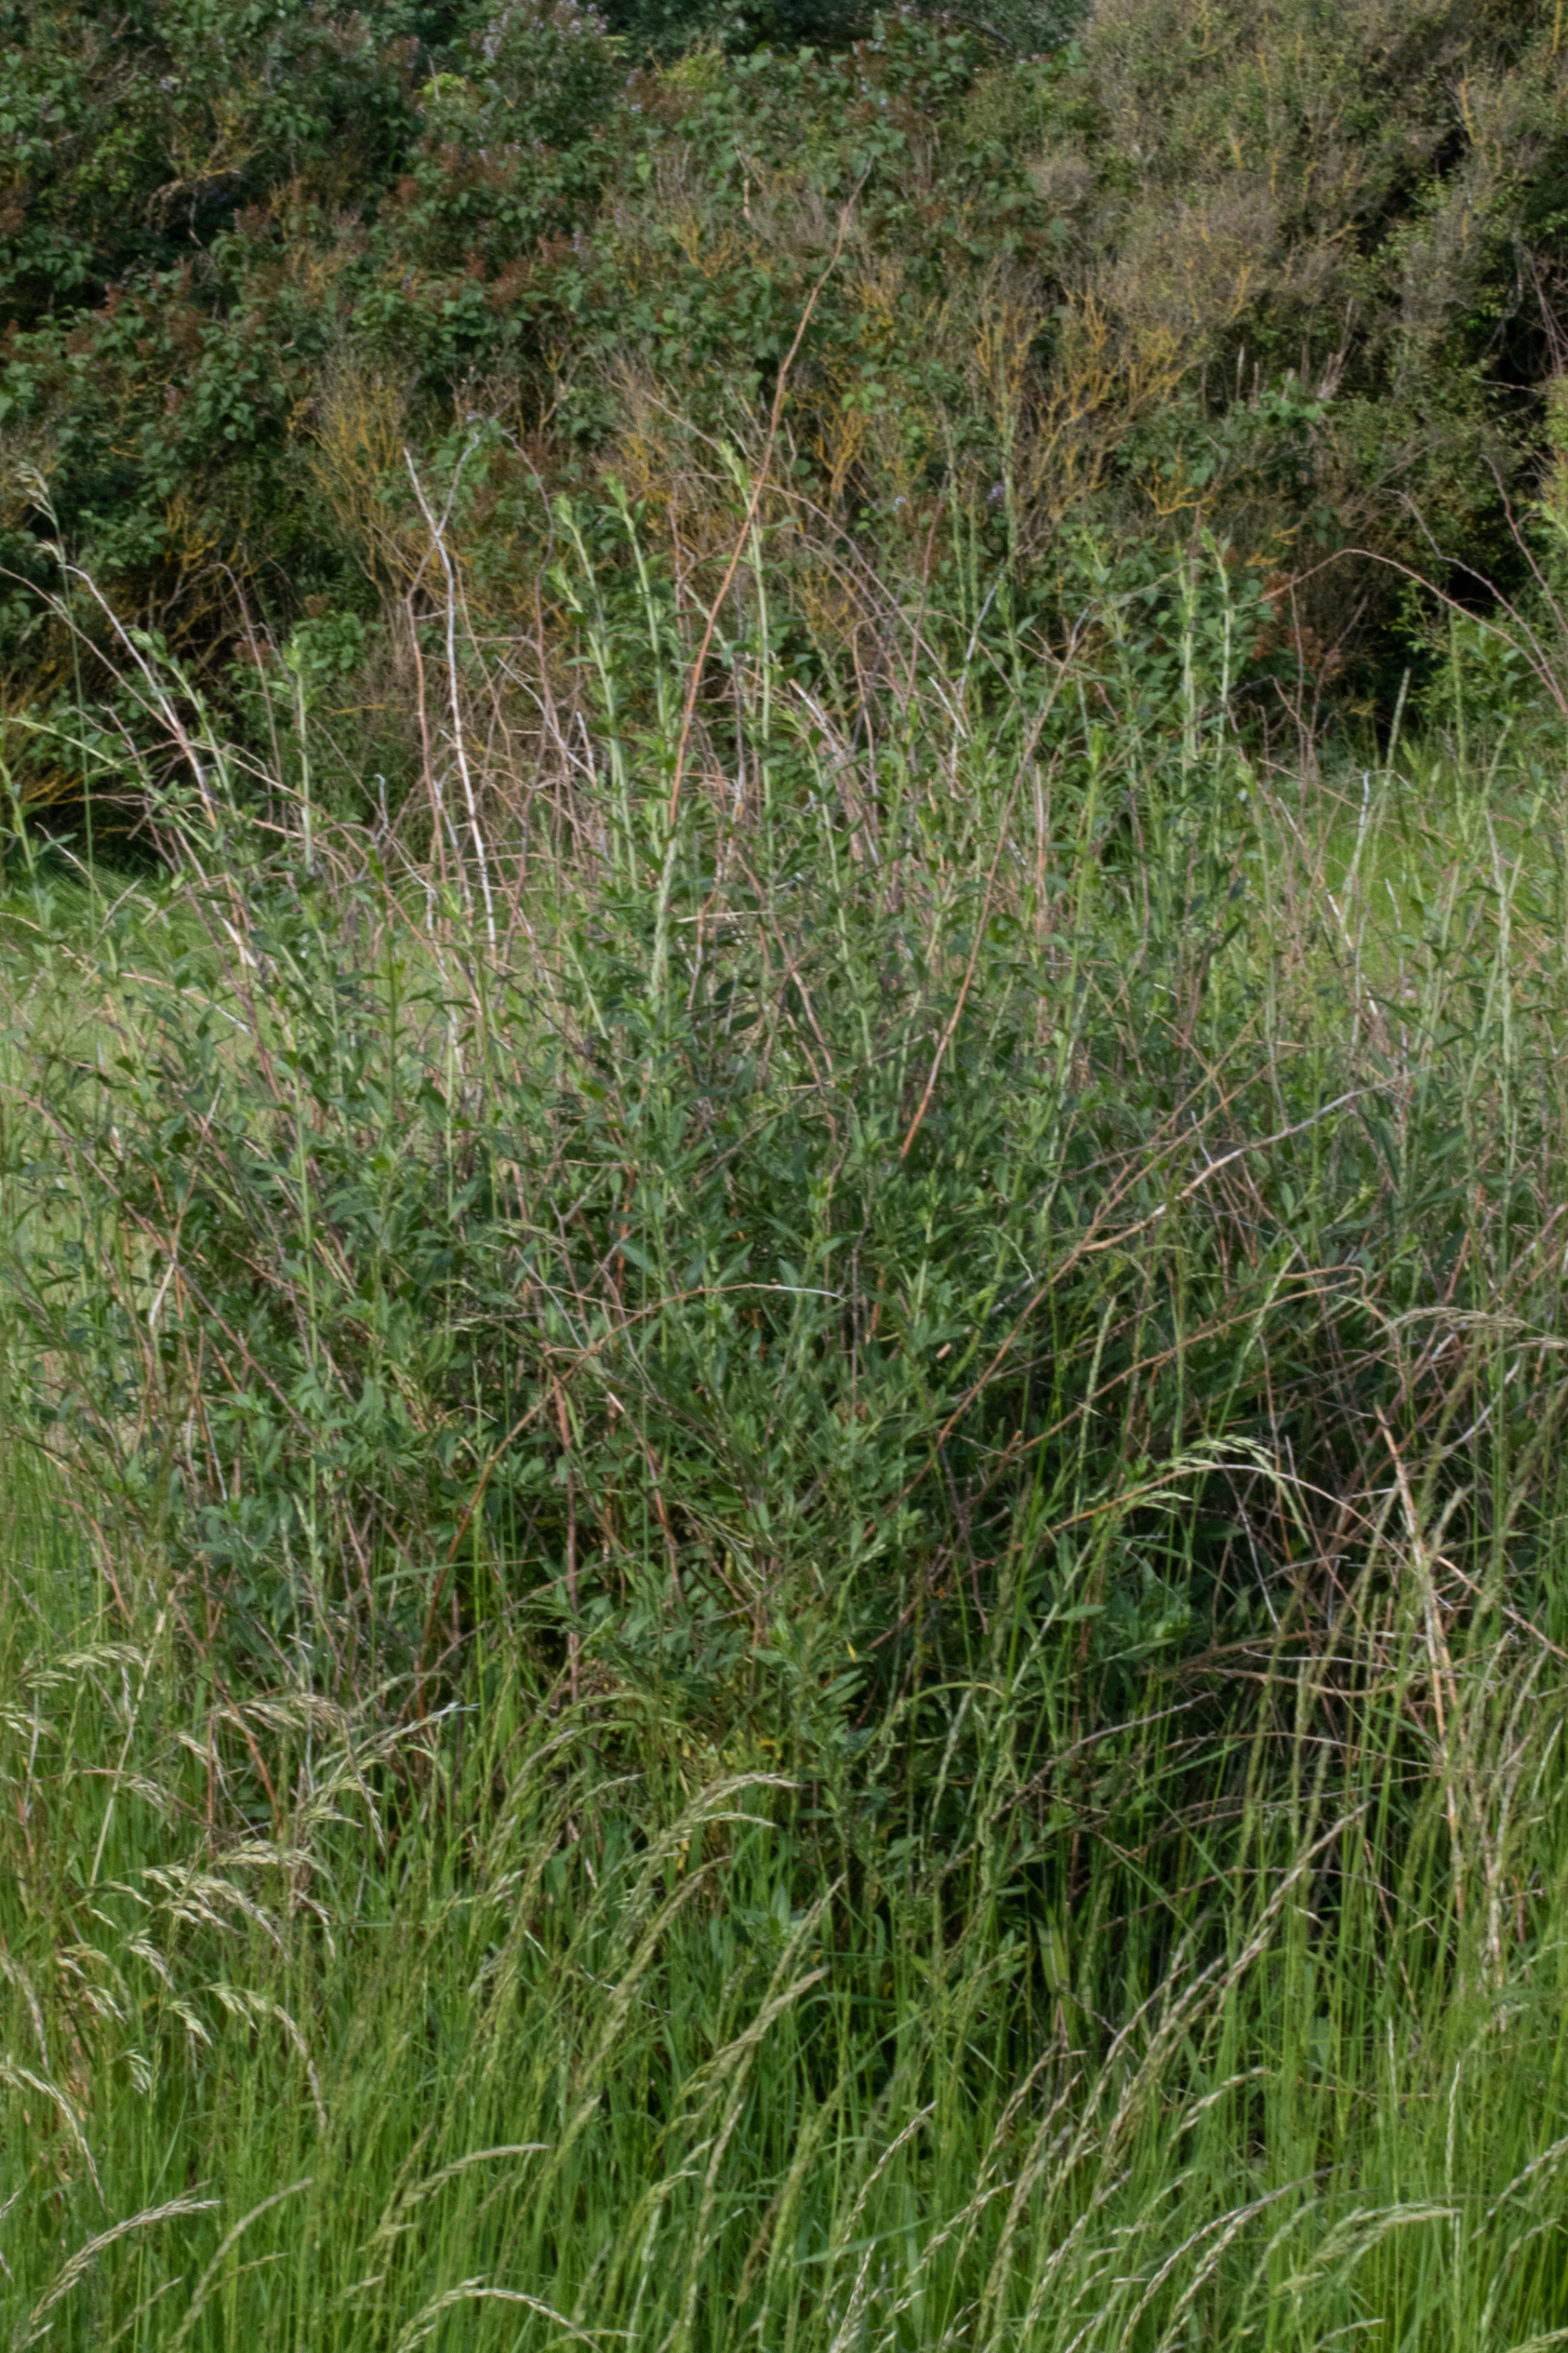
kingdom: Plantae
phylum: Tracheophyta
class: Magnoliopsida
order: Solanales
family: Solanaceae
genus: Lycium
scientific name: Lycium barbarum
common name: Bukketorn
